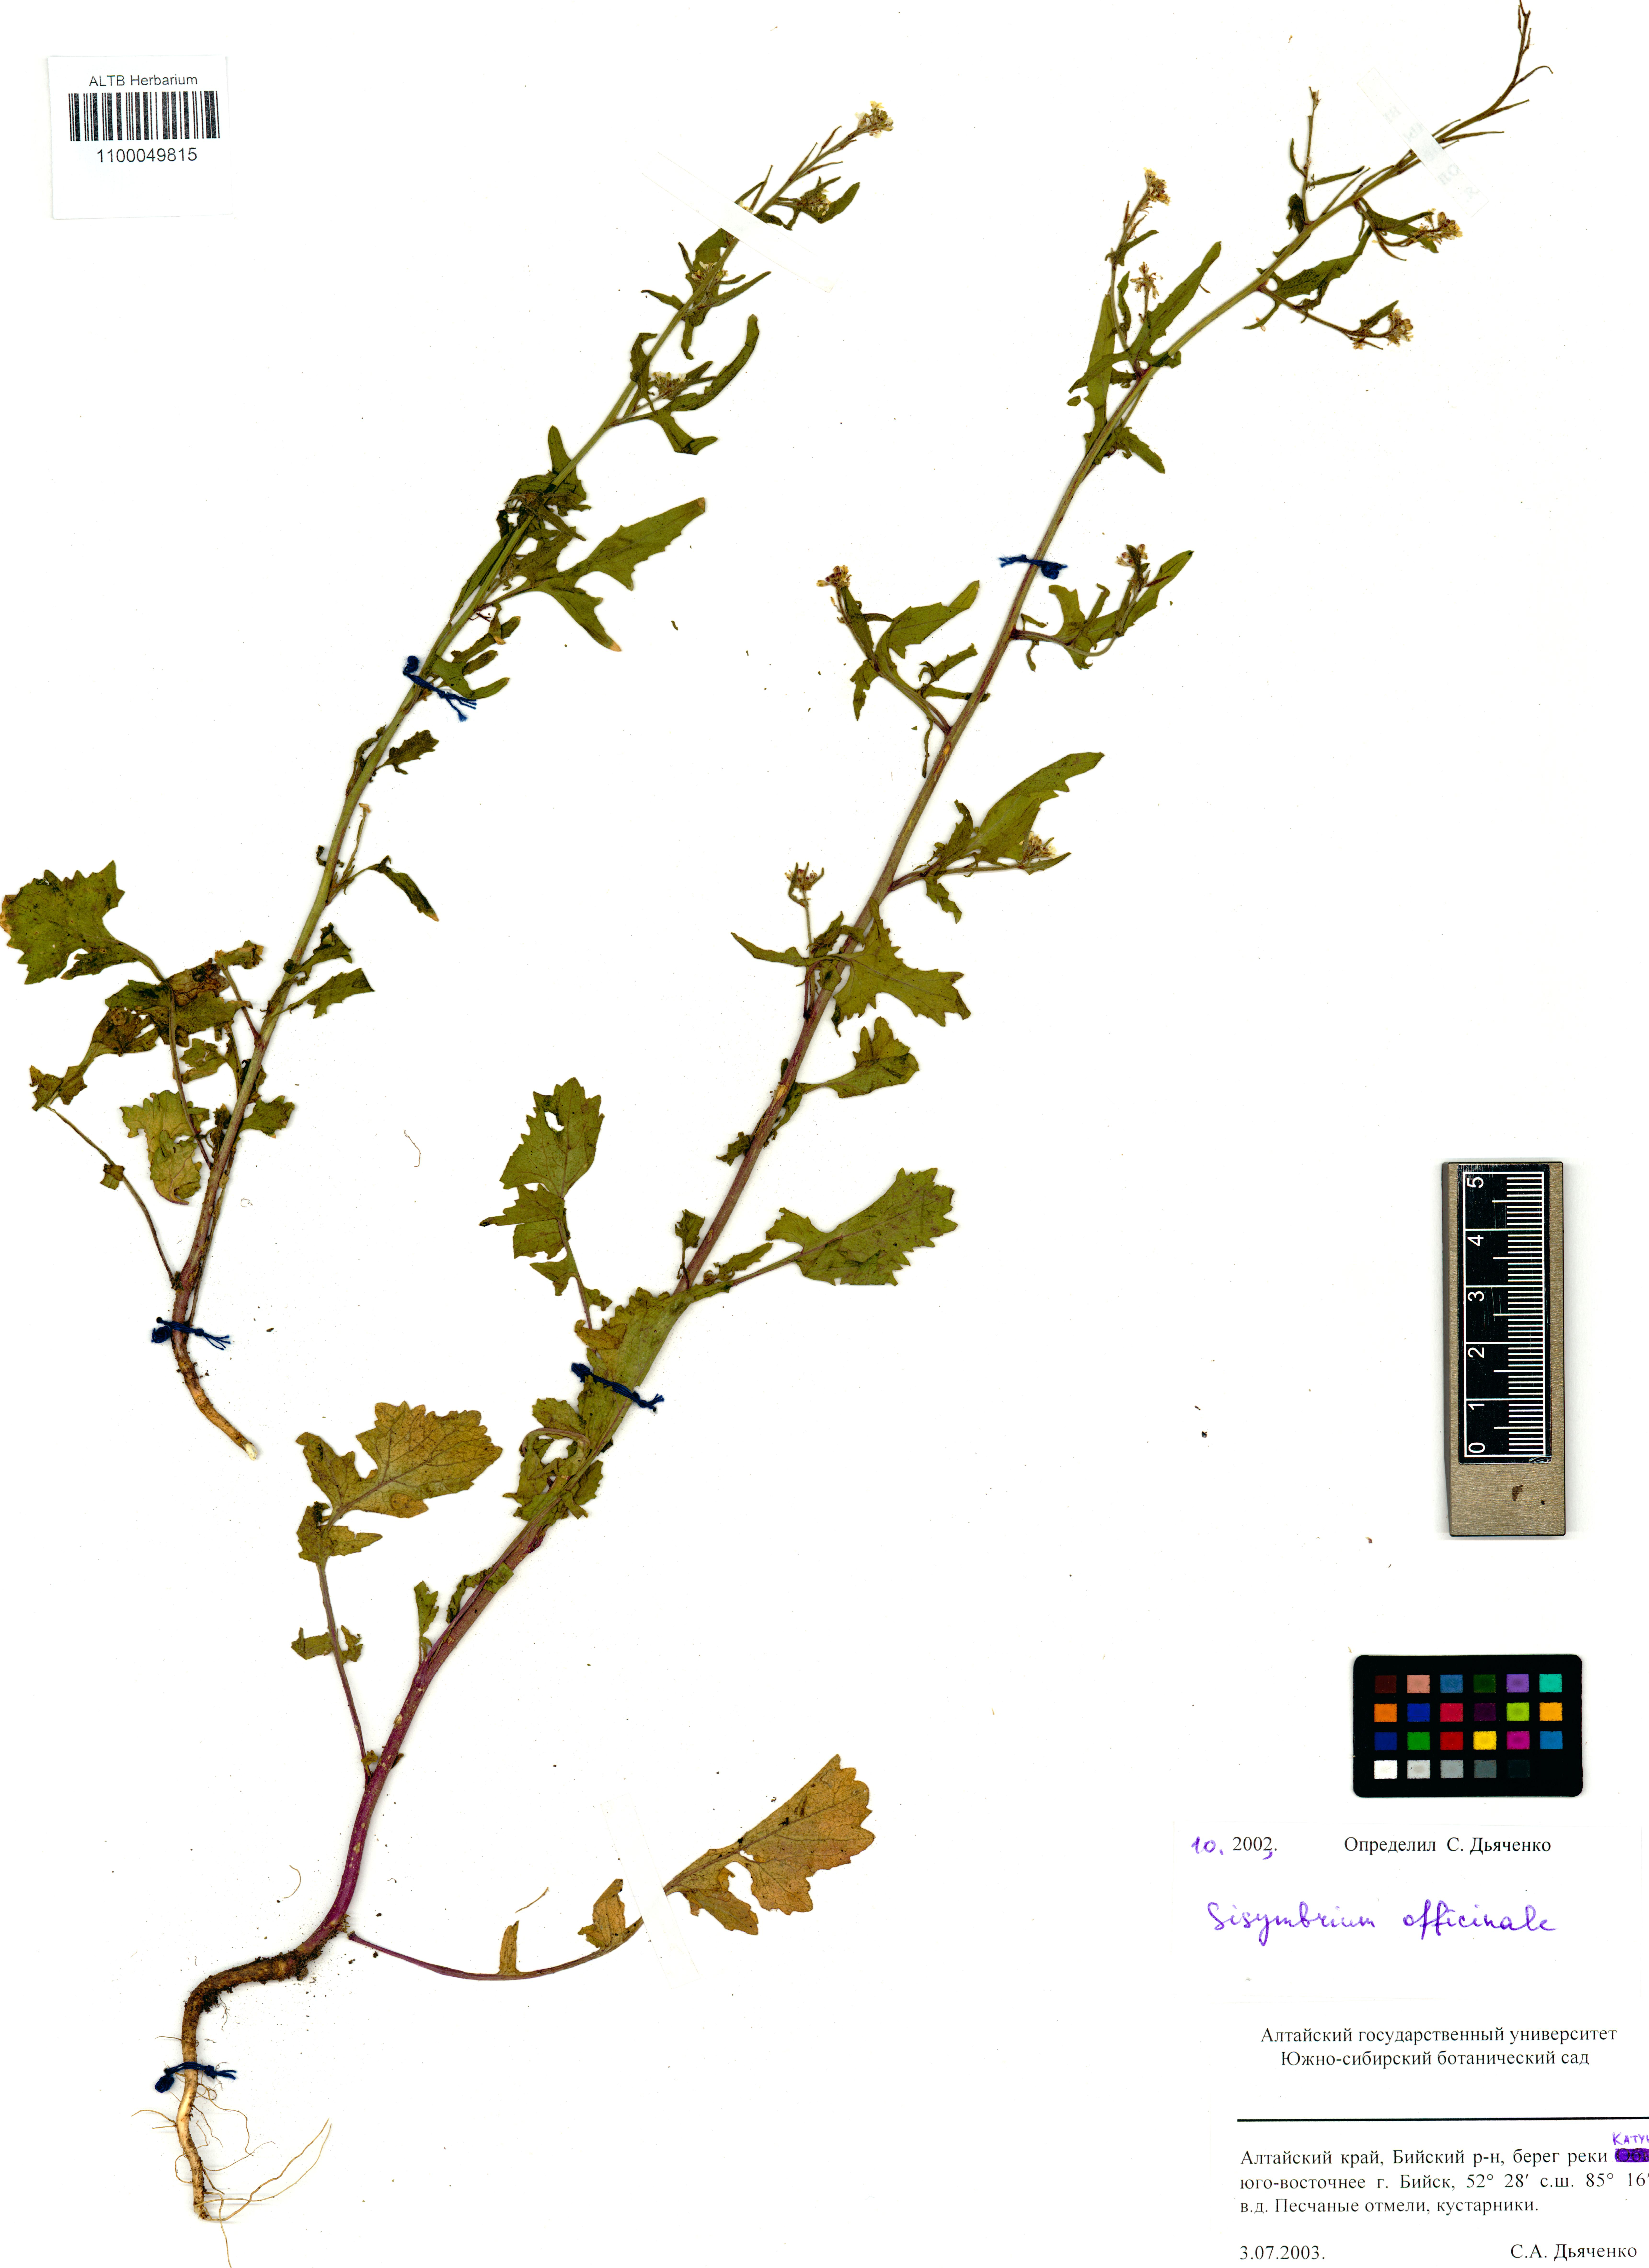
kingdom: Plantae
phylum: Tracheophyta
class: Magnoliopsida
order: Brassicales
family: Brassicaceae
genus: Sisymbrium
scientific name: Sisymbrium officinale
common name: Hedge mustard
